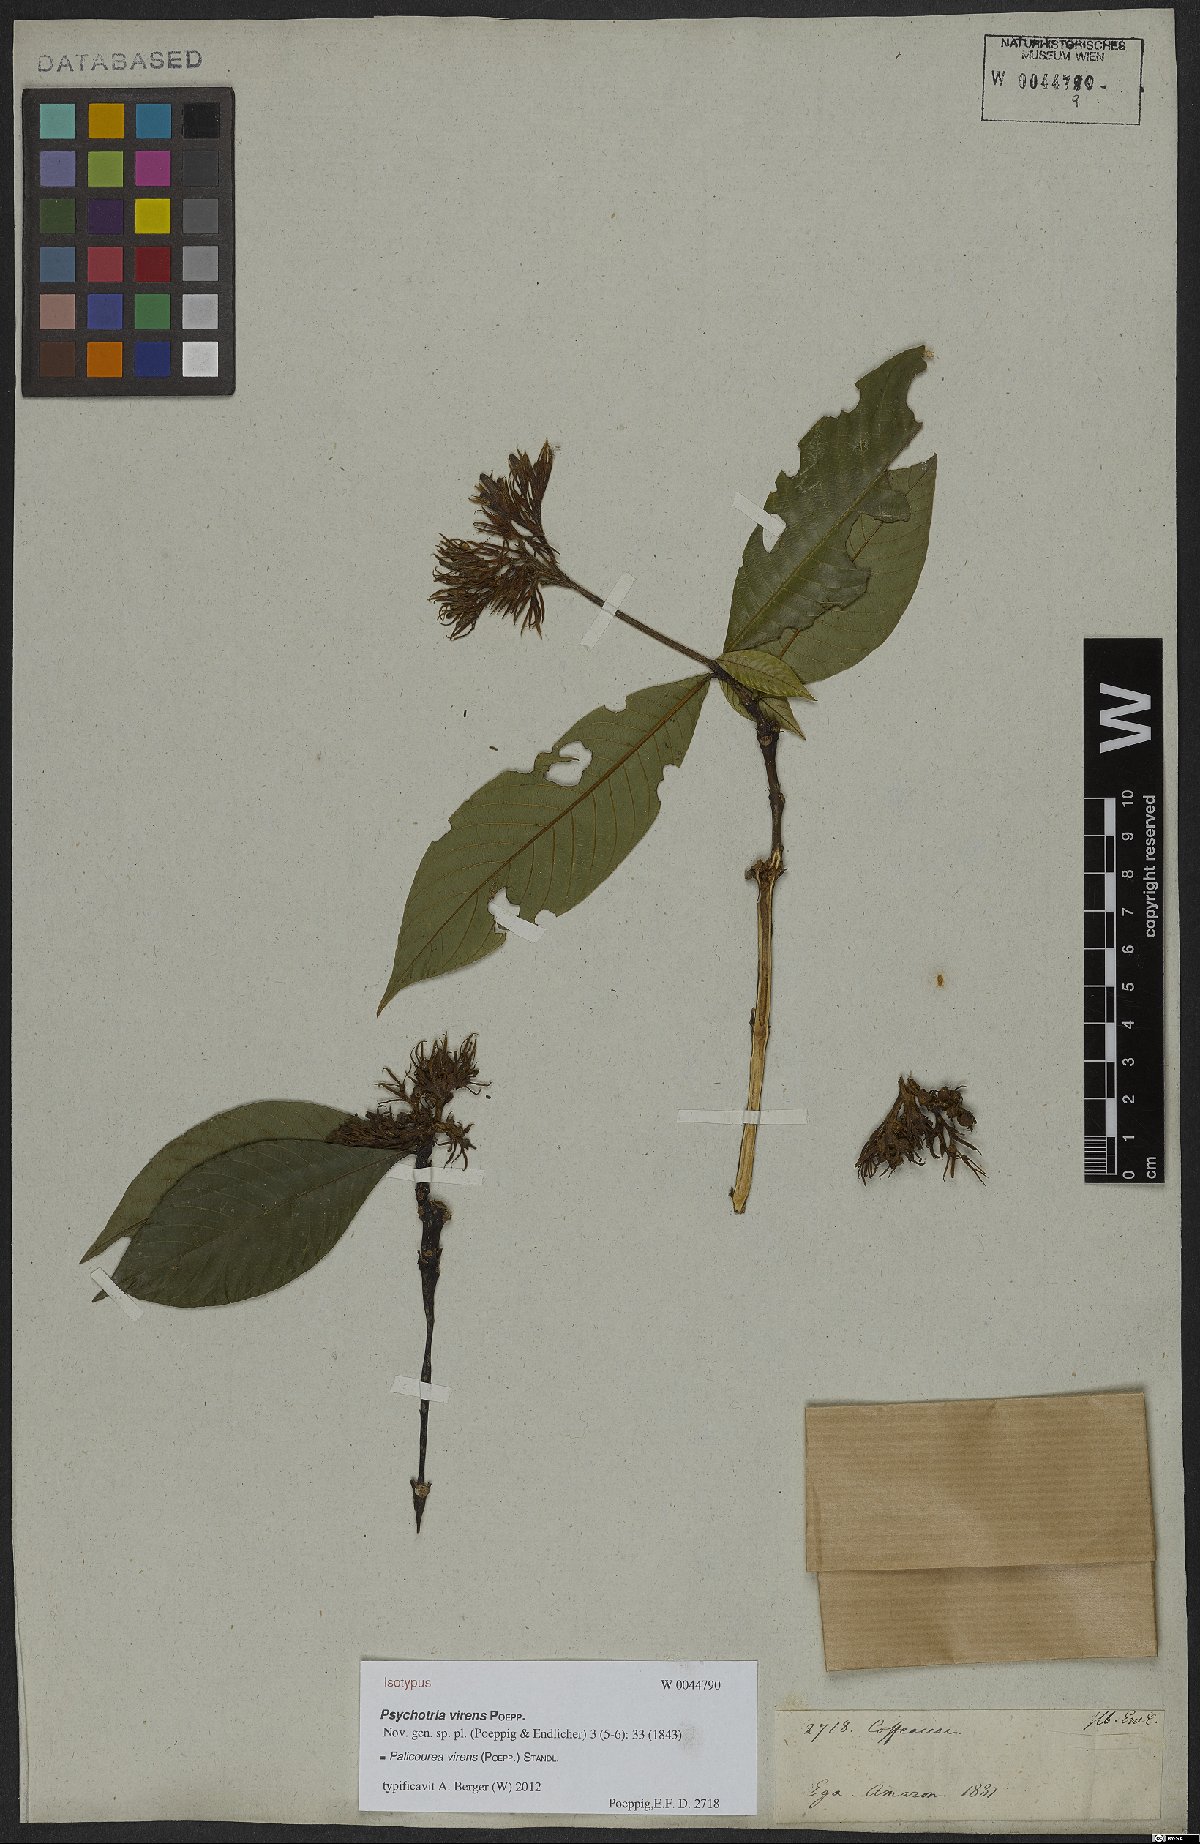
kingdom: Plantae
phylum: Tracheophyta
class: Magnoliopsida
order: Gentianales
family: Rubiaceae
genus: Palicourea
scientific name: Palicourea virens
